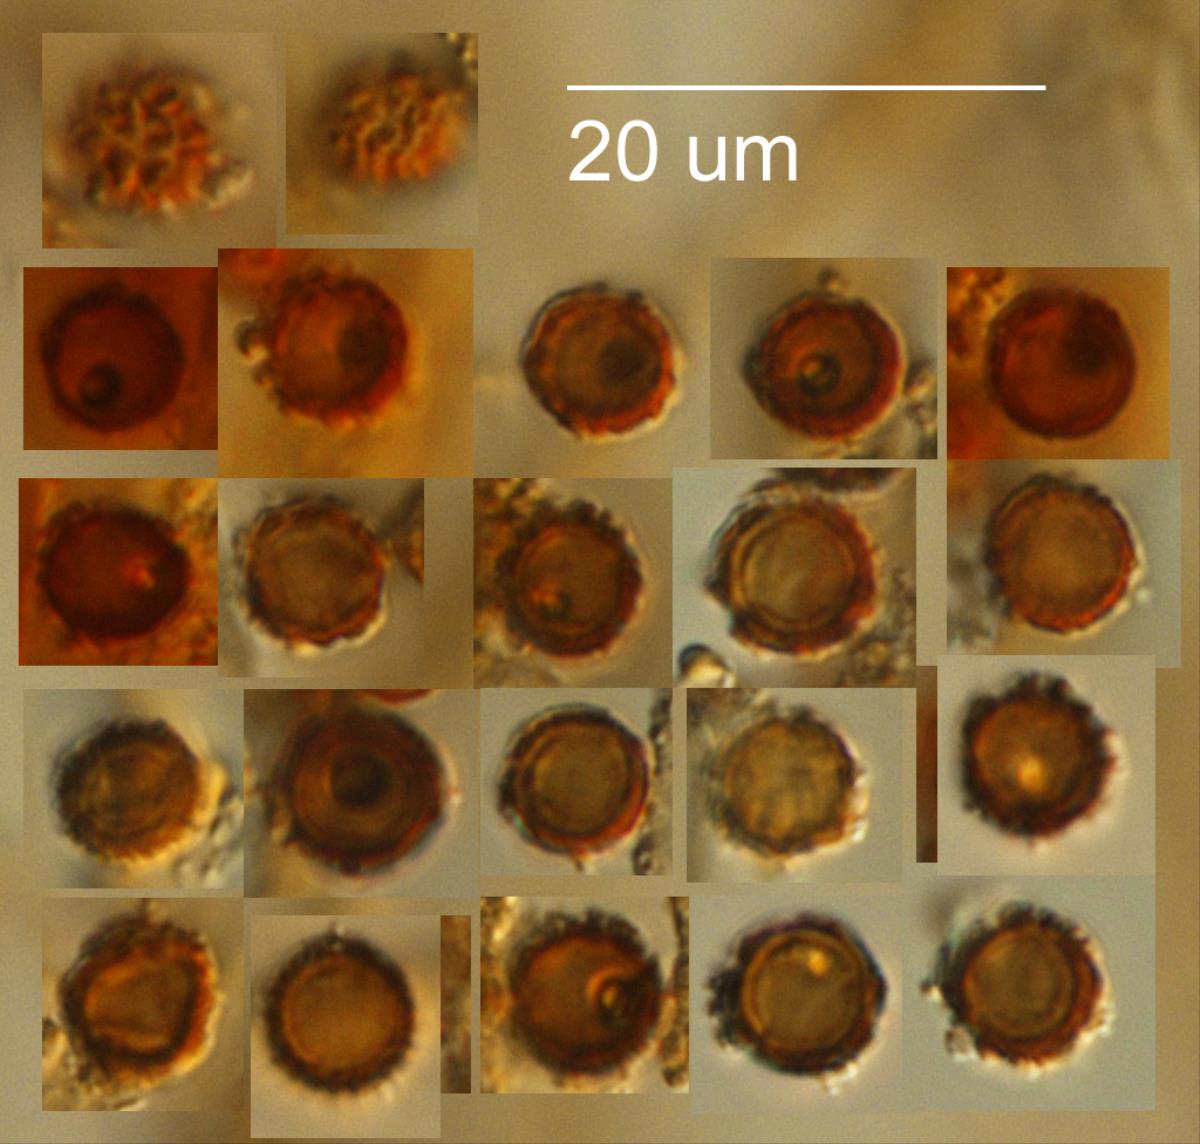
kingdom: Fungi
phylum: Basidiomycota
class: Agaricomycetes
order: Geastrales
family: Geastraceae
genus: Geastrum
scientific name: Geastrum floriforme
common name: Daisy earthstar
